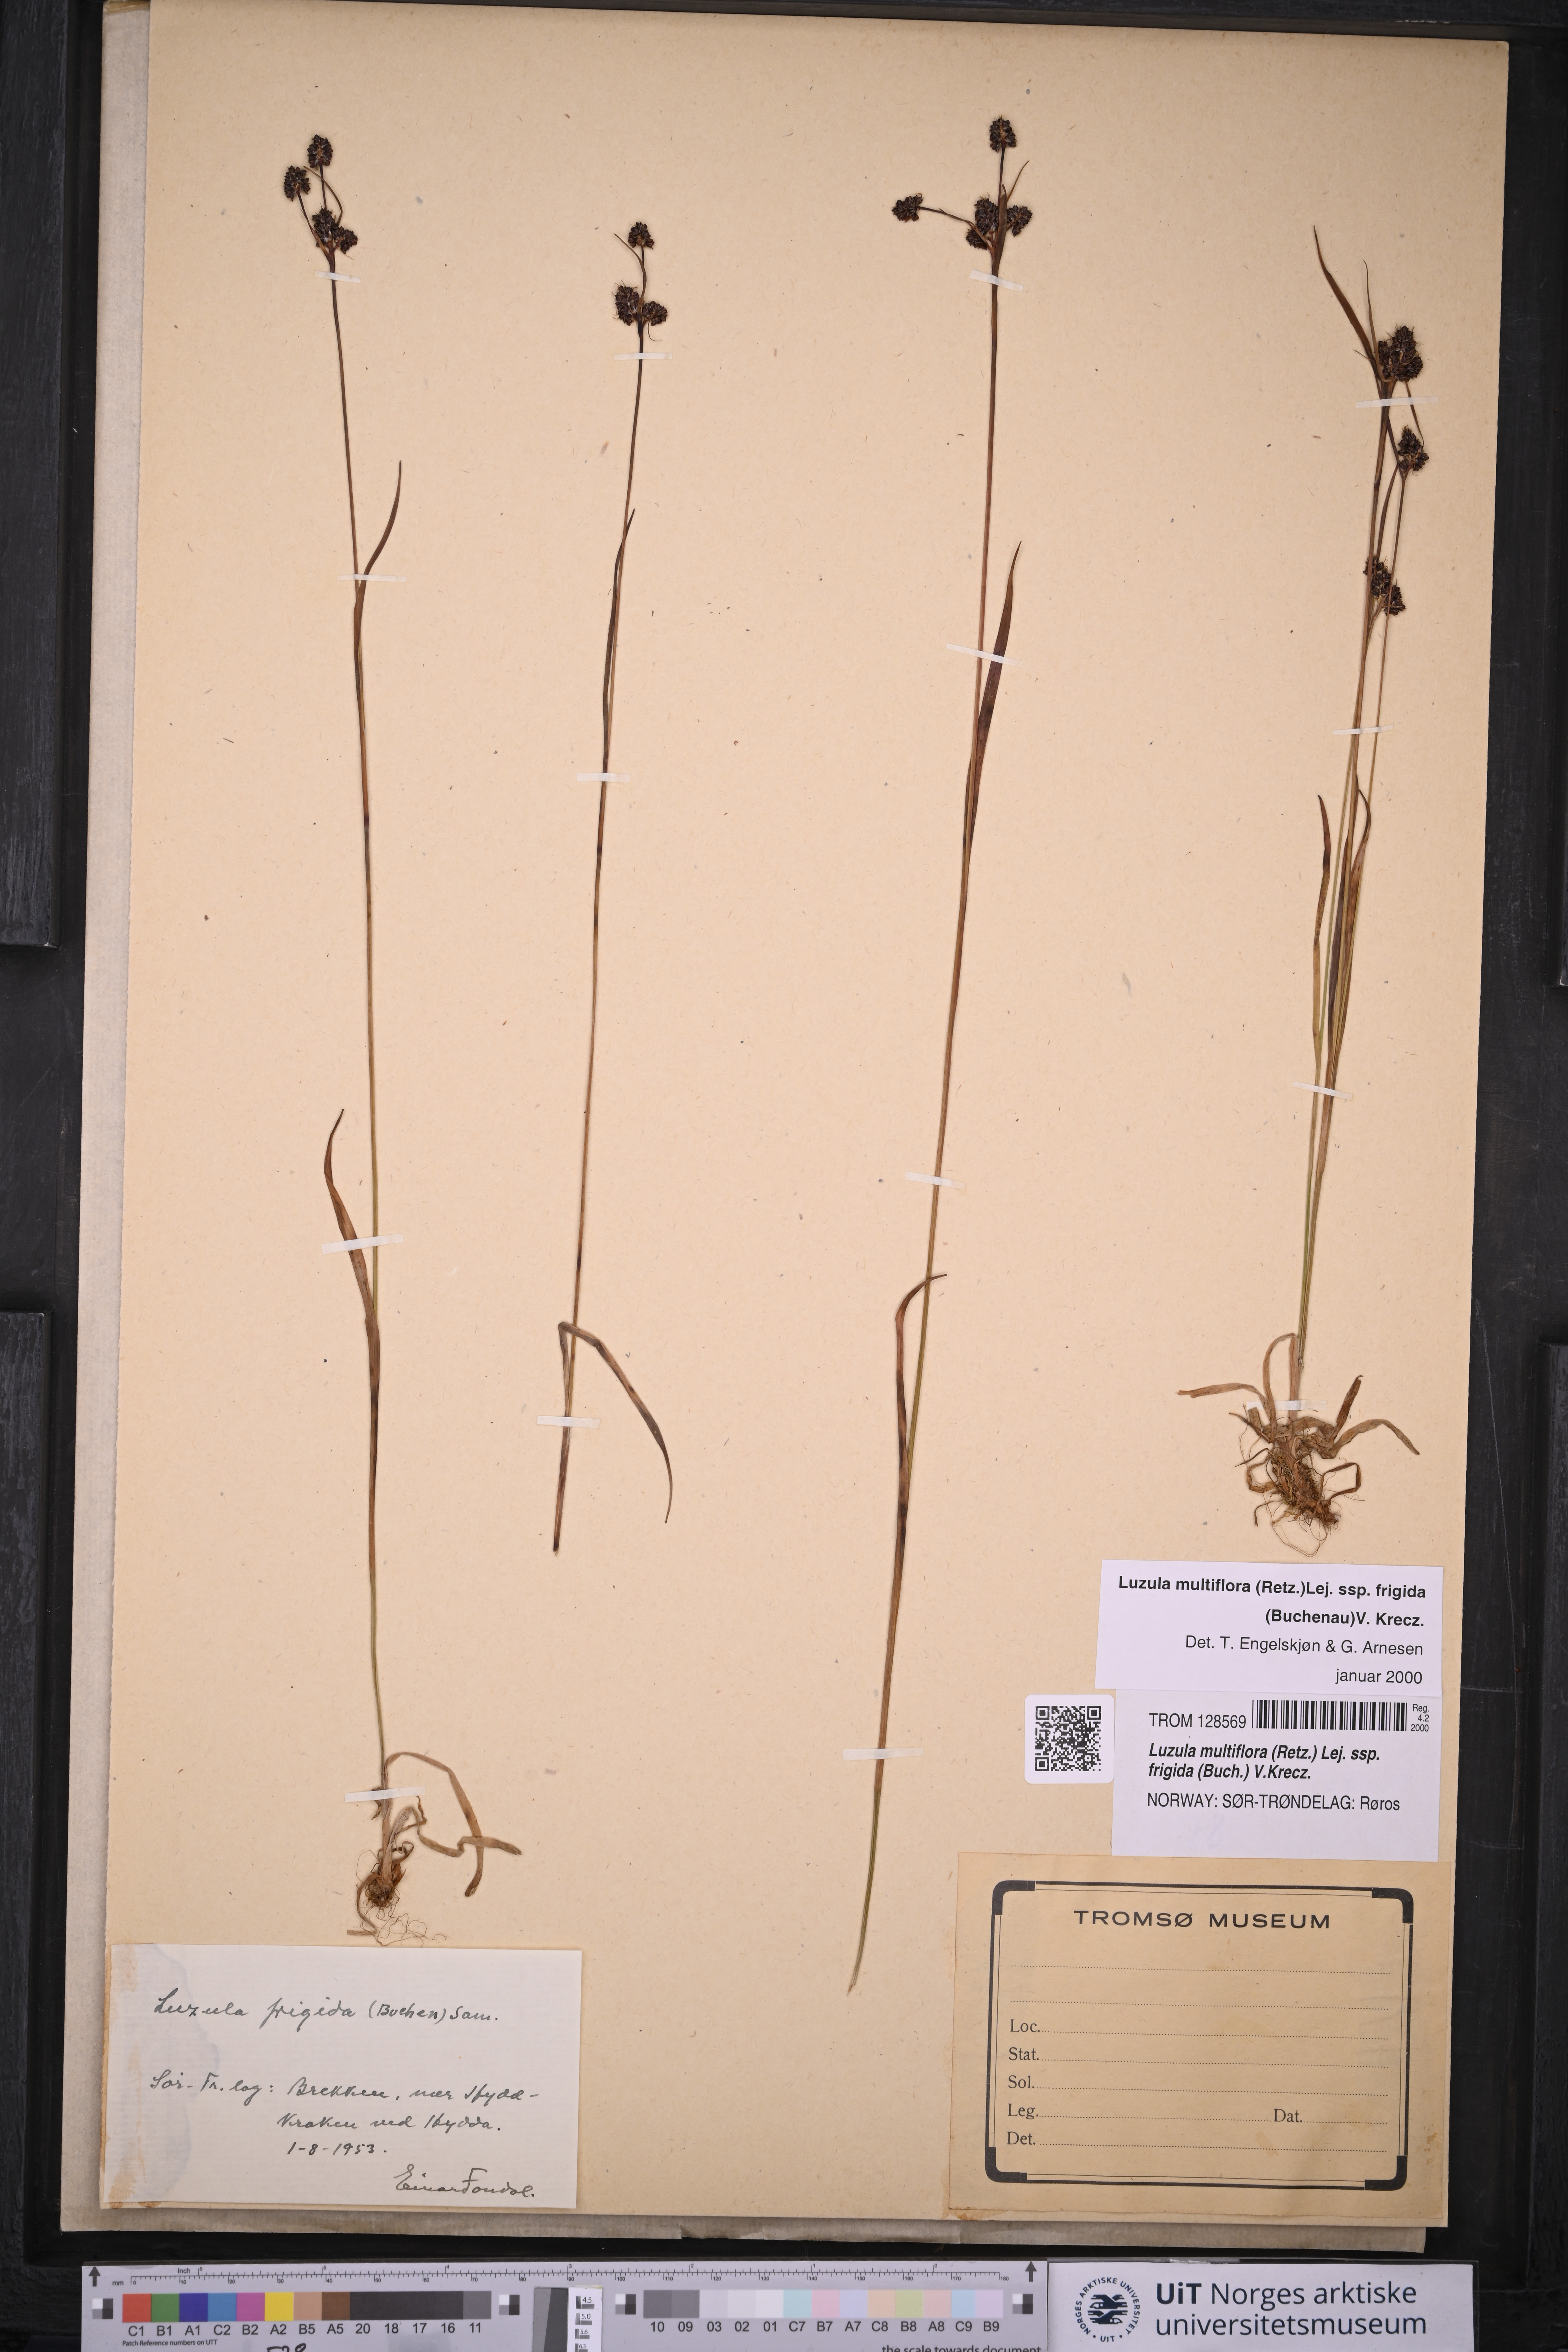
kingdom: Plantae
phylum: Tracheophyta
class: Liliopsida
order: Poales
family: Juncaceae
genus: Luzula
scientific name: Luzula multiflora
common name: Heath wood-rush
